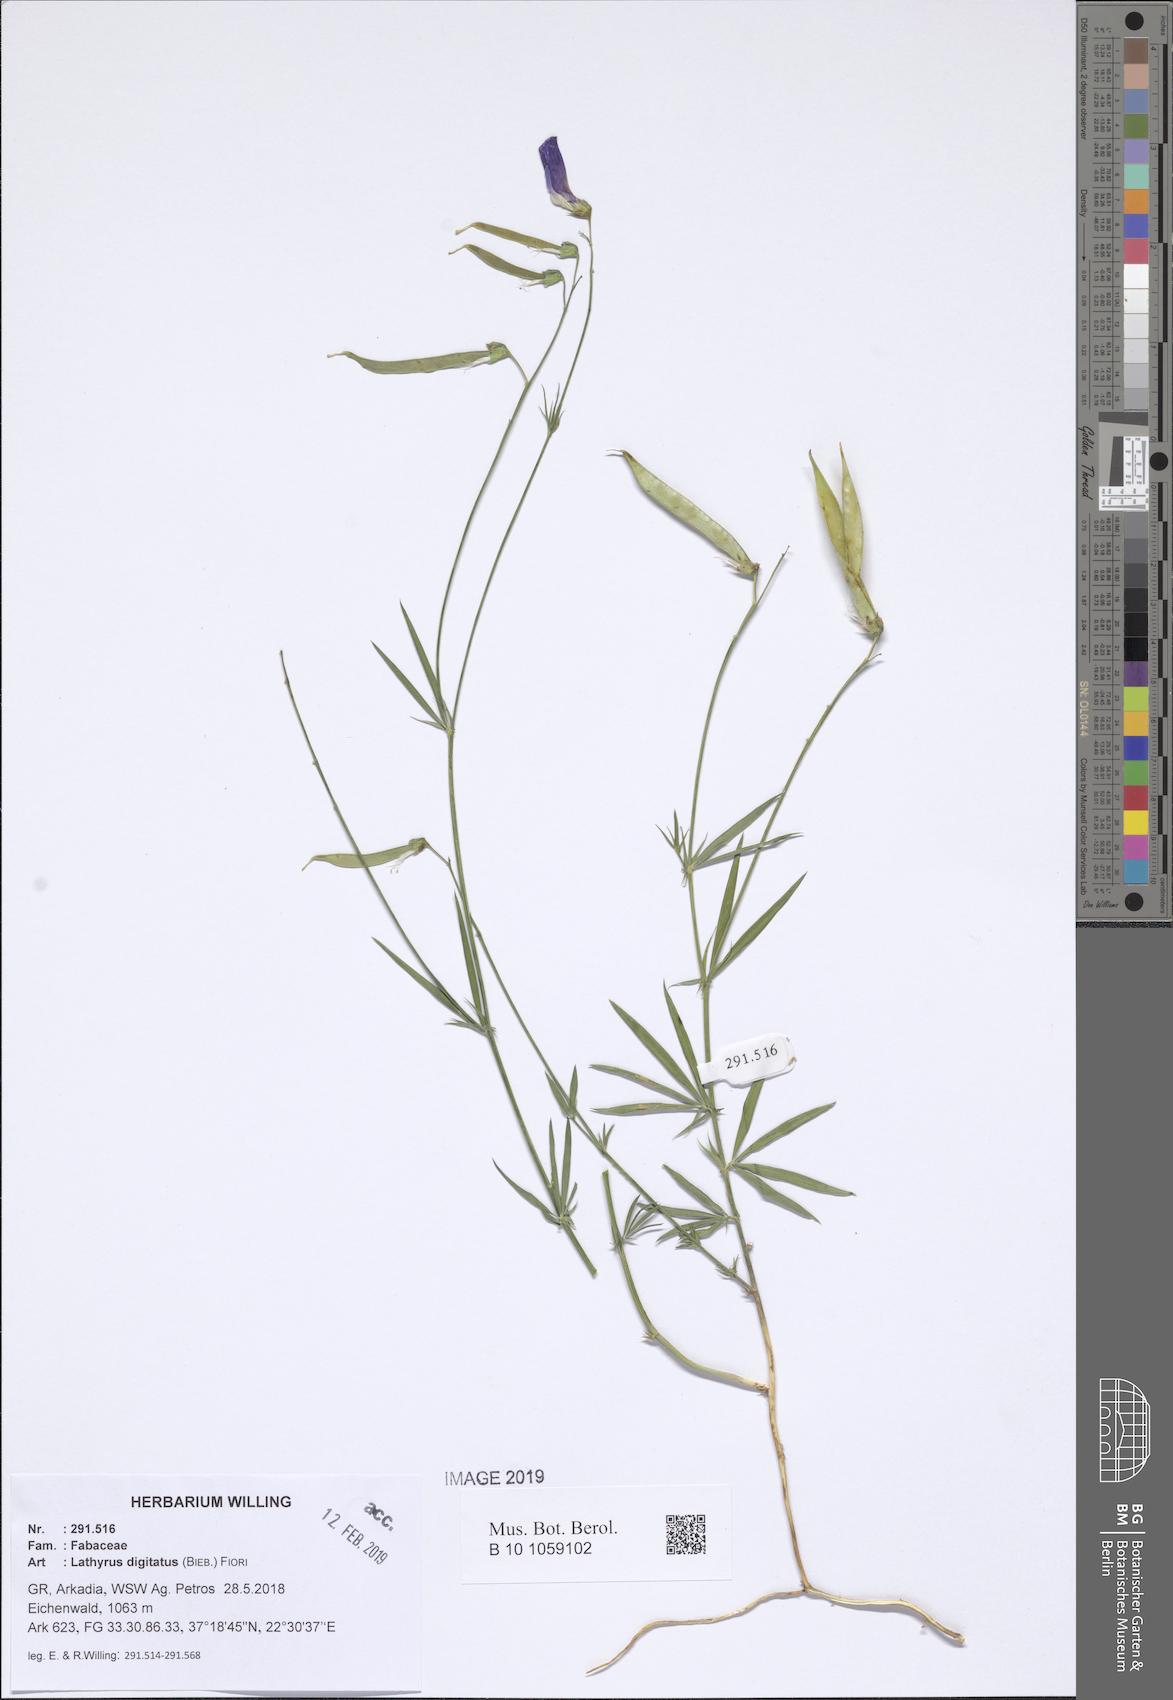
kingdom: Plantae
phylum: Tracheophyta
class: Magnoliopsida
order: Fabales
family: Fabaceae
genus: Lathyrus
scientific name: Lathyrus digitatus
